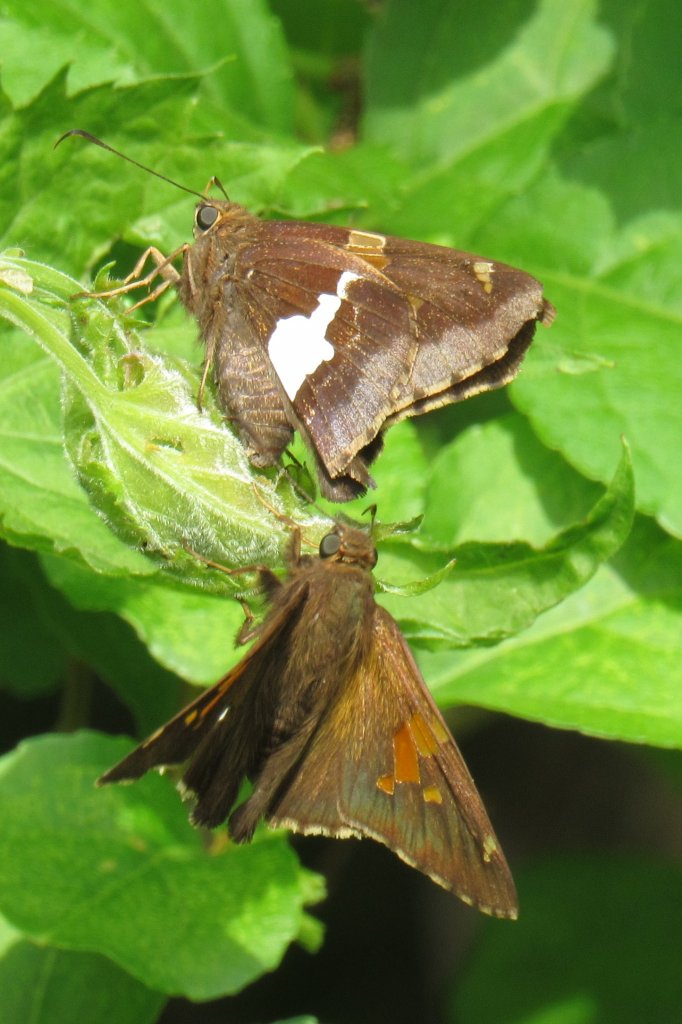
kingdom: Animalia
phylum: Arthropoda
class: Insecta
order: Lepidoptera
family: Hesperiidae
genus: Epargyreus
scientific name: Epargyreus clarus
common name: Silver-spotted Skipper
